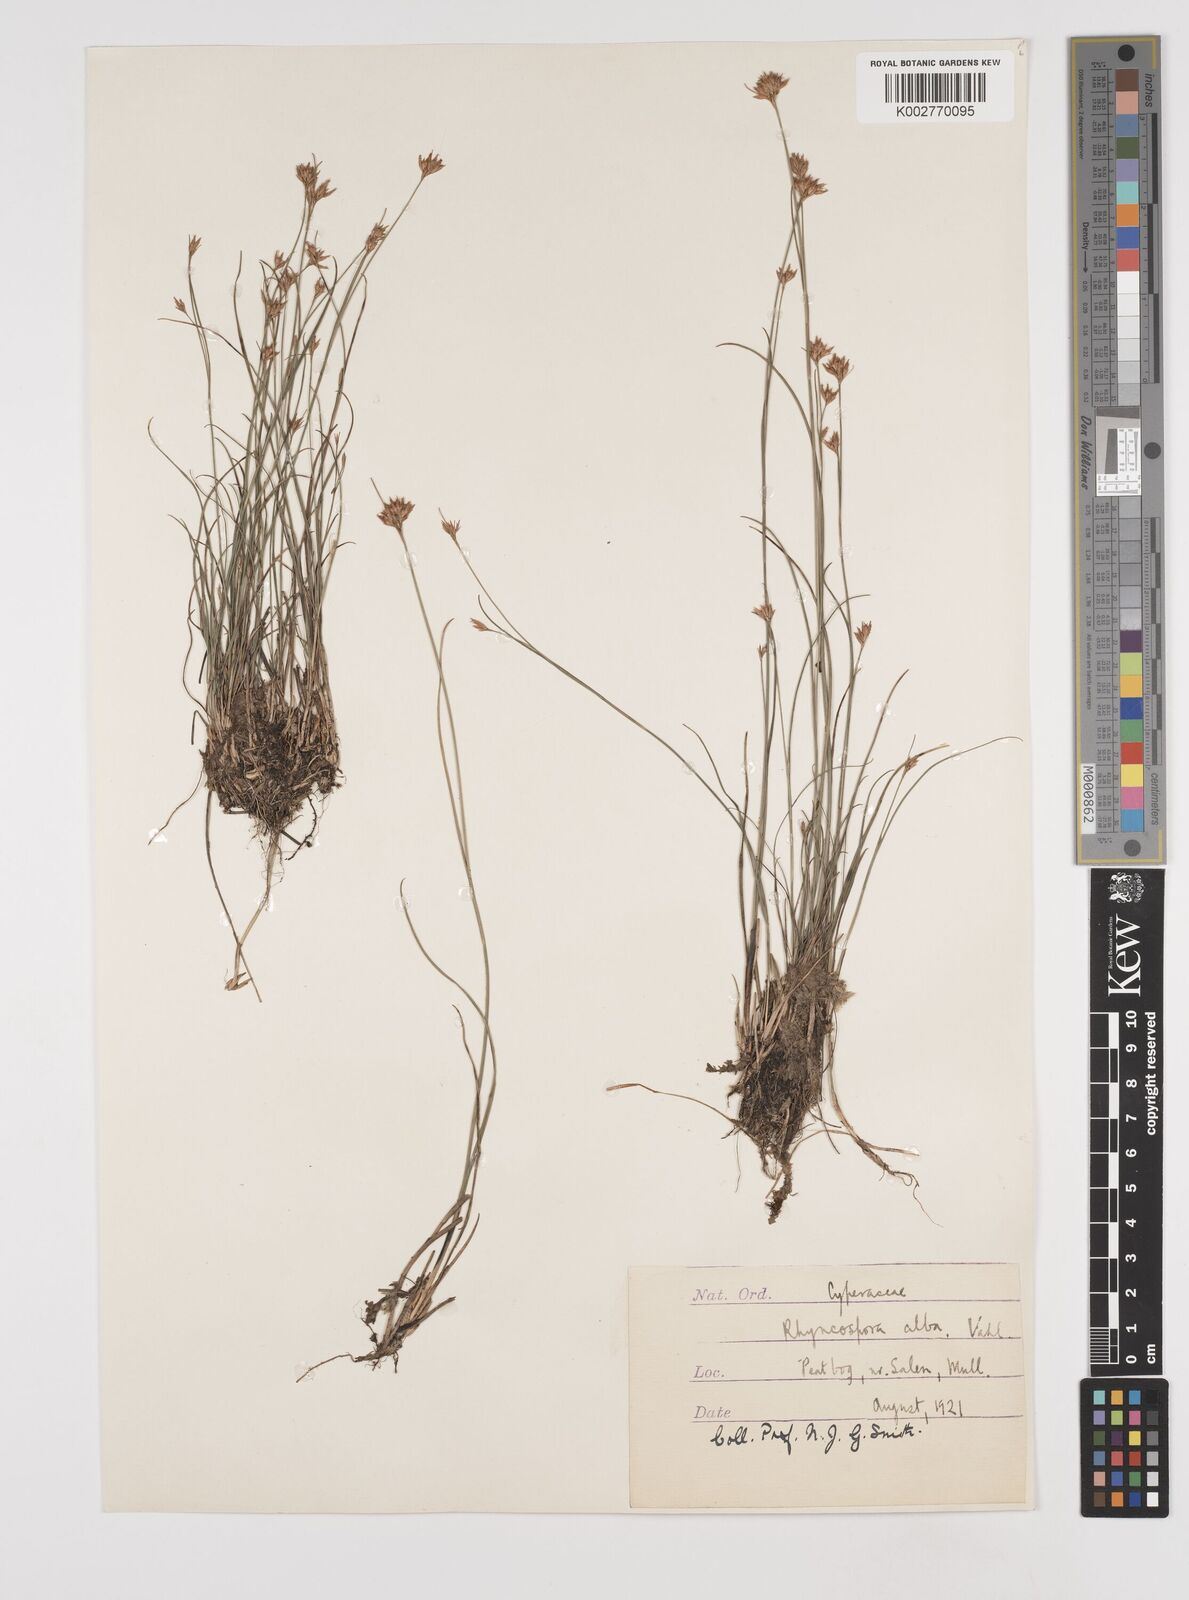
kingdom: Plantae
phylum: Tracheophyta
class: Liliopsida
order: Poales
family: Cyperaceae
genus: Rhynchospora
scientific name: Rhynchospora alba
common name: White beak-sedge
